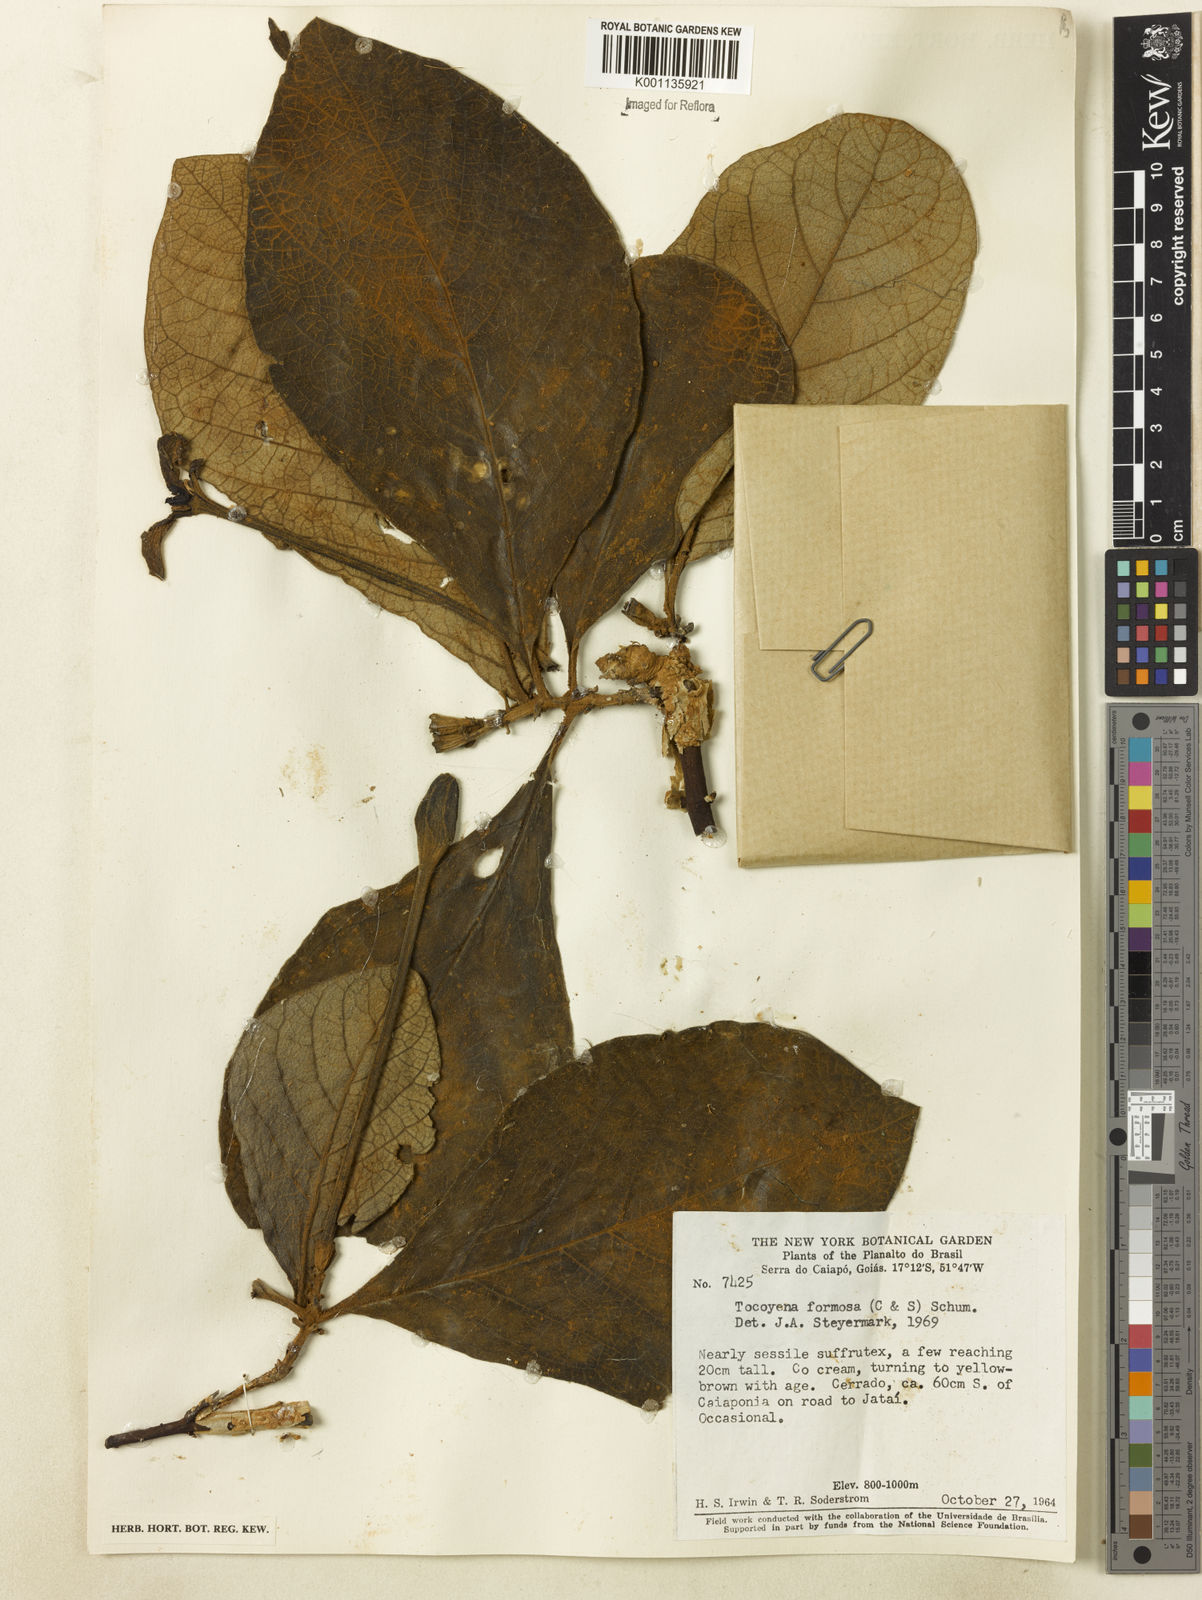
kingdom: Plantae
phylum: Tracheophyta
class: Magnoliopsida
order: Gentianales
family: Rubiaceae
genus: Tocoyena
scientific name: Tocoyena formosa
